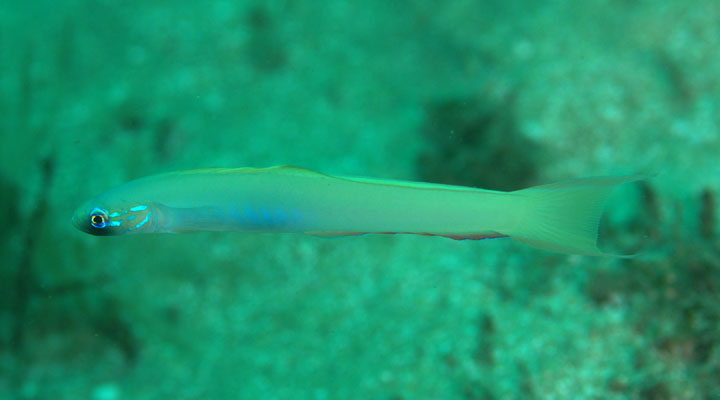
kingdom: Animalia
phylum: Chordata
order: Perciformes
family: Microdesmidae
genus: Ptereleotris
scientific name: Ptereleotris monoptera
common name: Lyre-tail dart-goby
